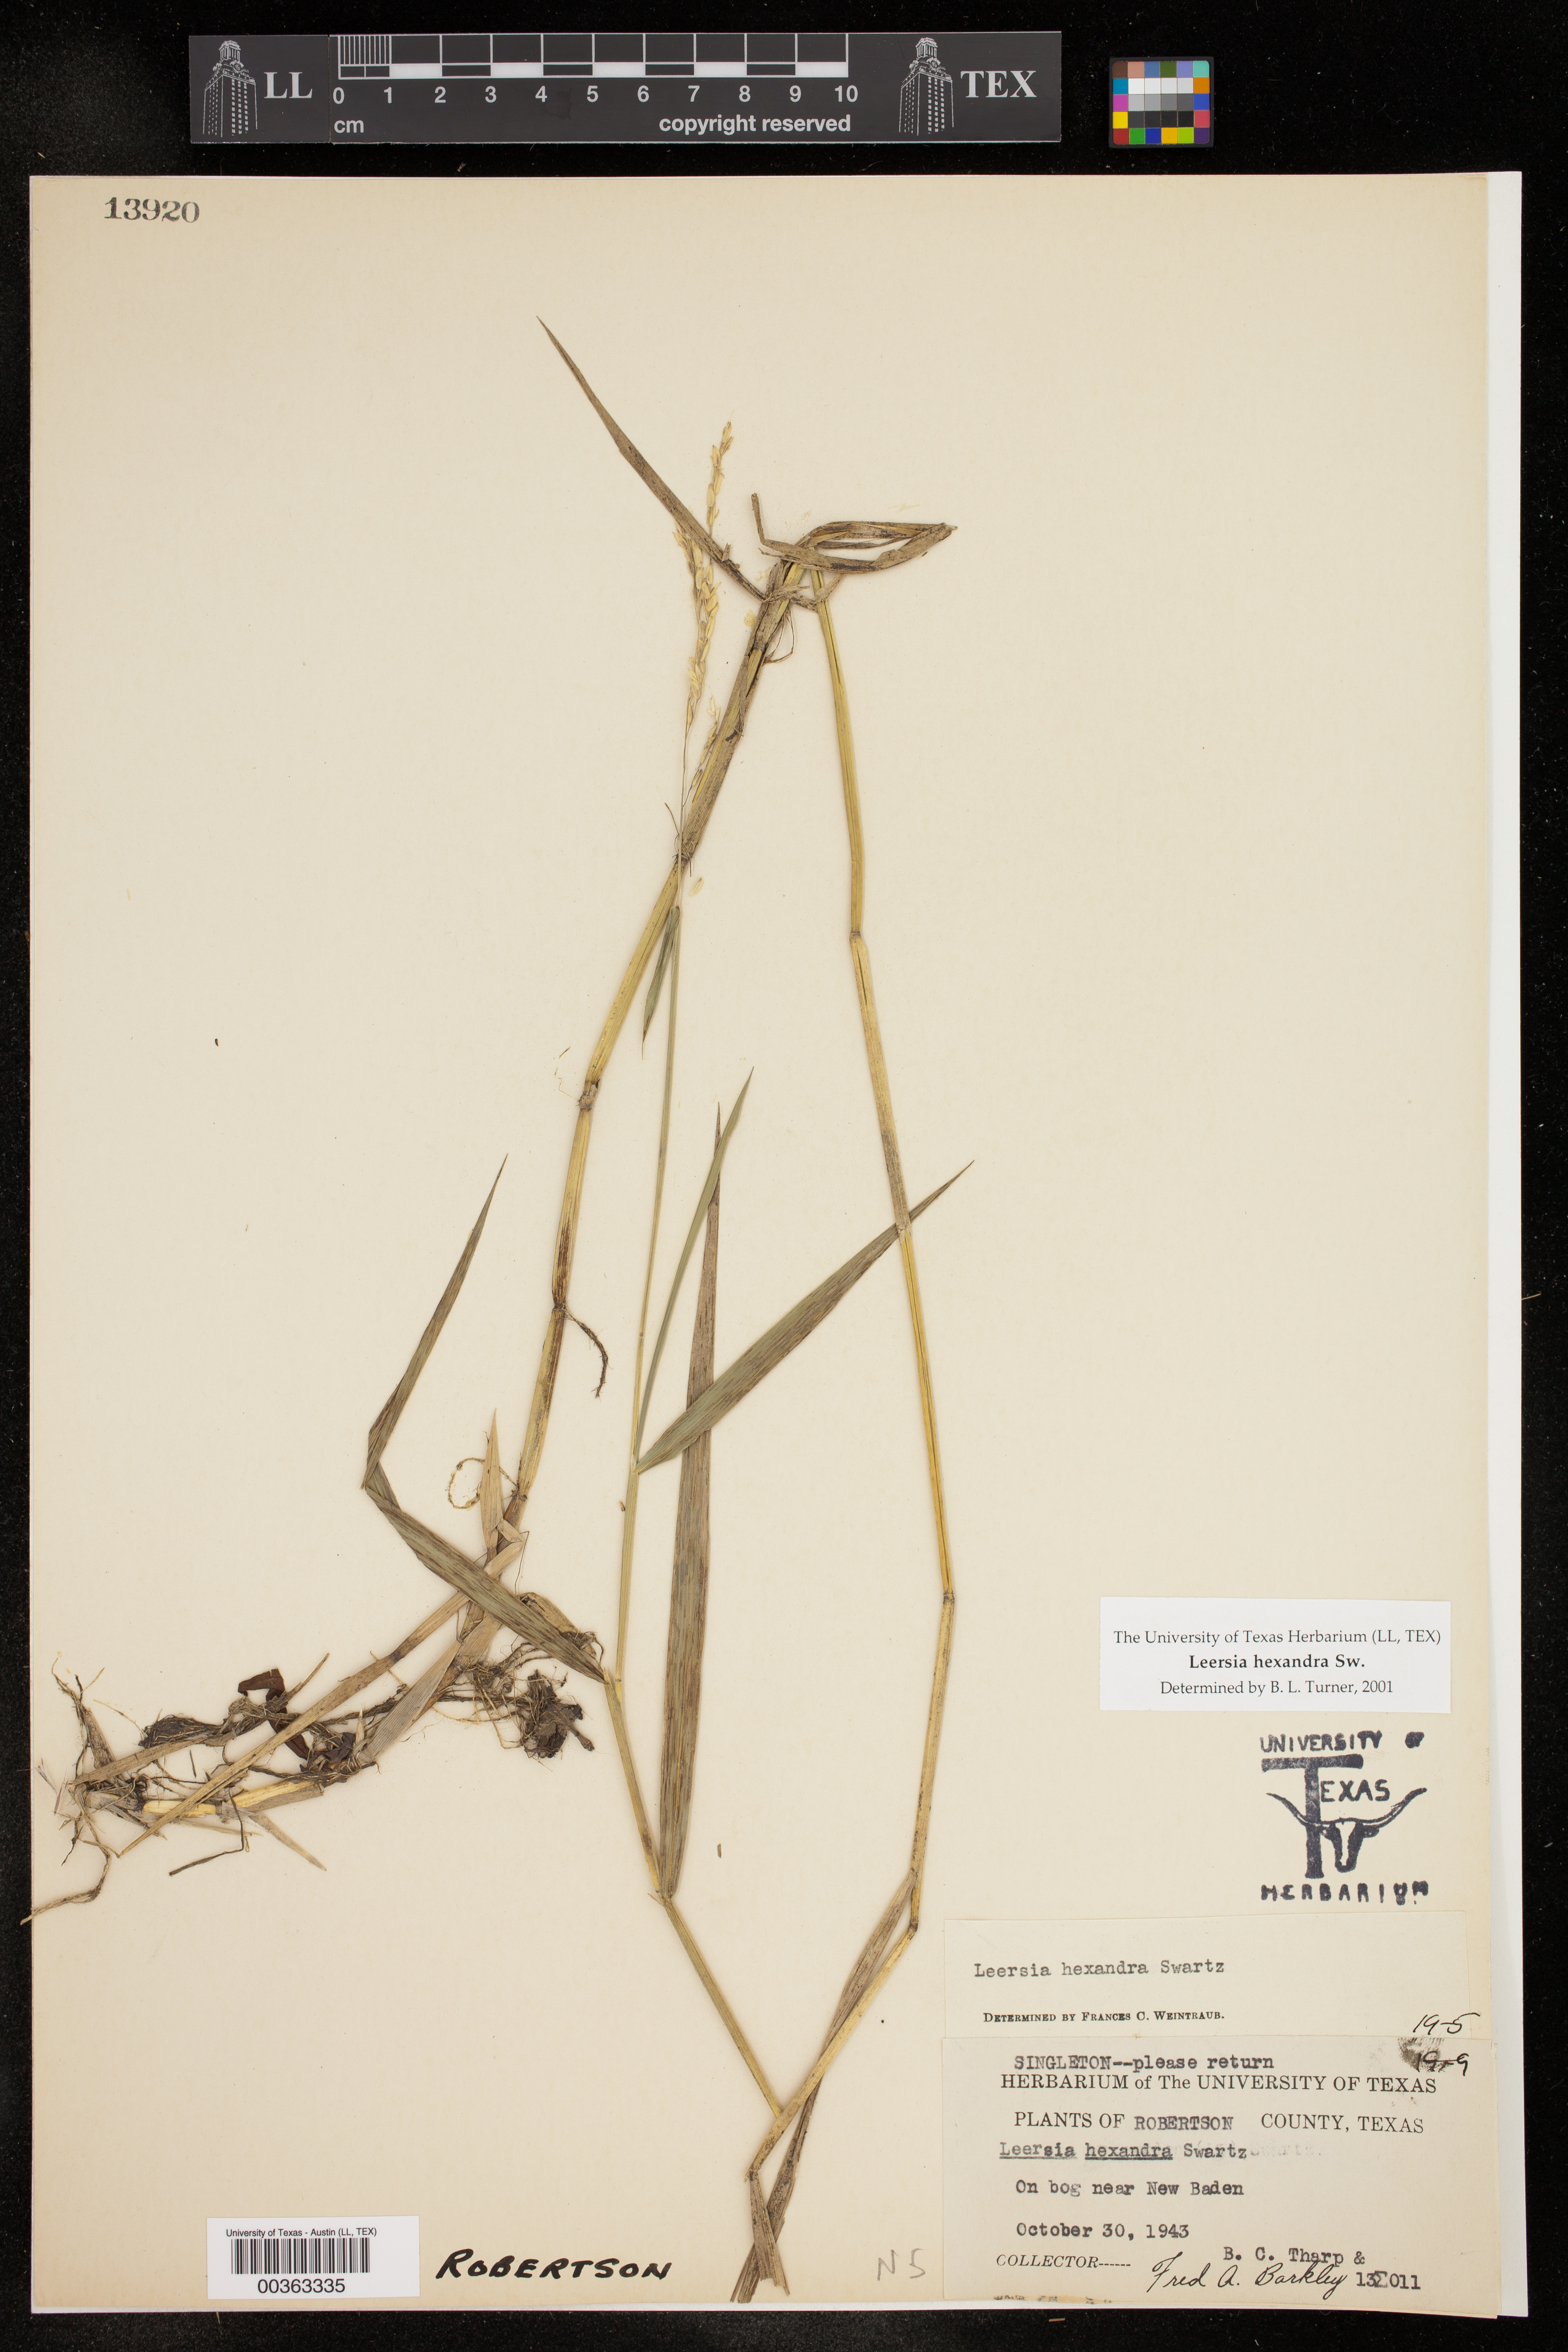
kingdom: Plantae
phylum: Tracheophyta
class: Liliopsida
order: Poales
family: Poaceae
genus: Leersia
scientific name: Leersia hexandra
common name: Southern cut grass
